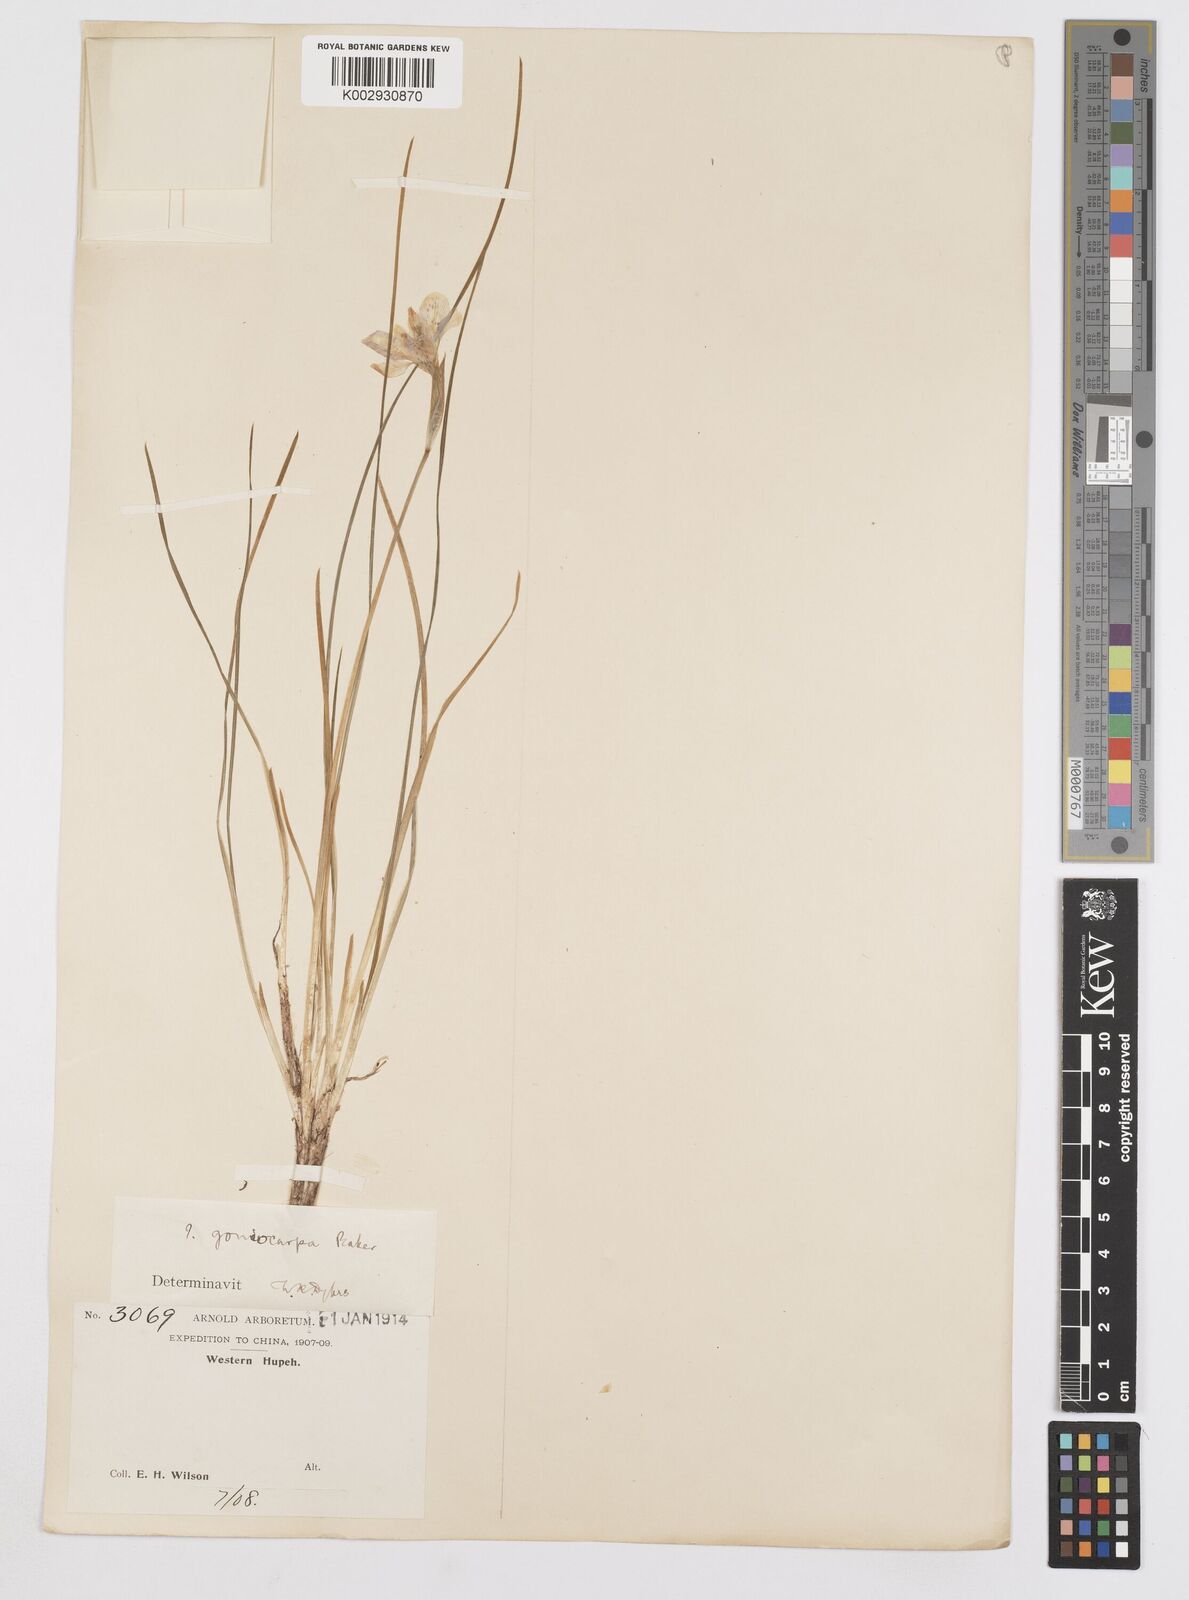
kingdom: Plantae
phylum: Tracheophyta
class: Liliopsida
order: Asparagales
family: Iridaceae
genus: Iris
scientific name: Iris goniocarpa
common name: Angular-fruit iris
